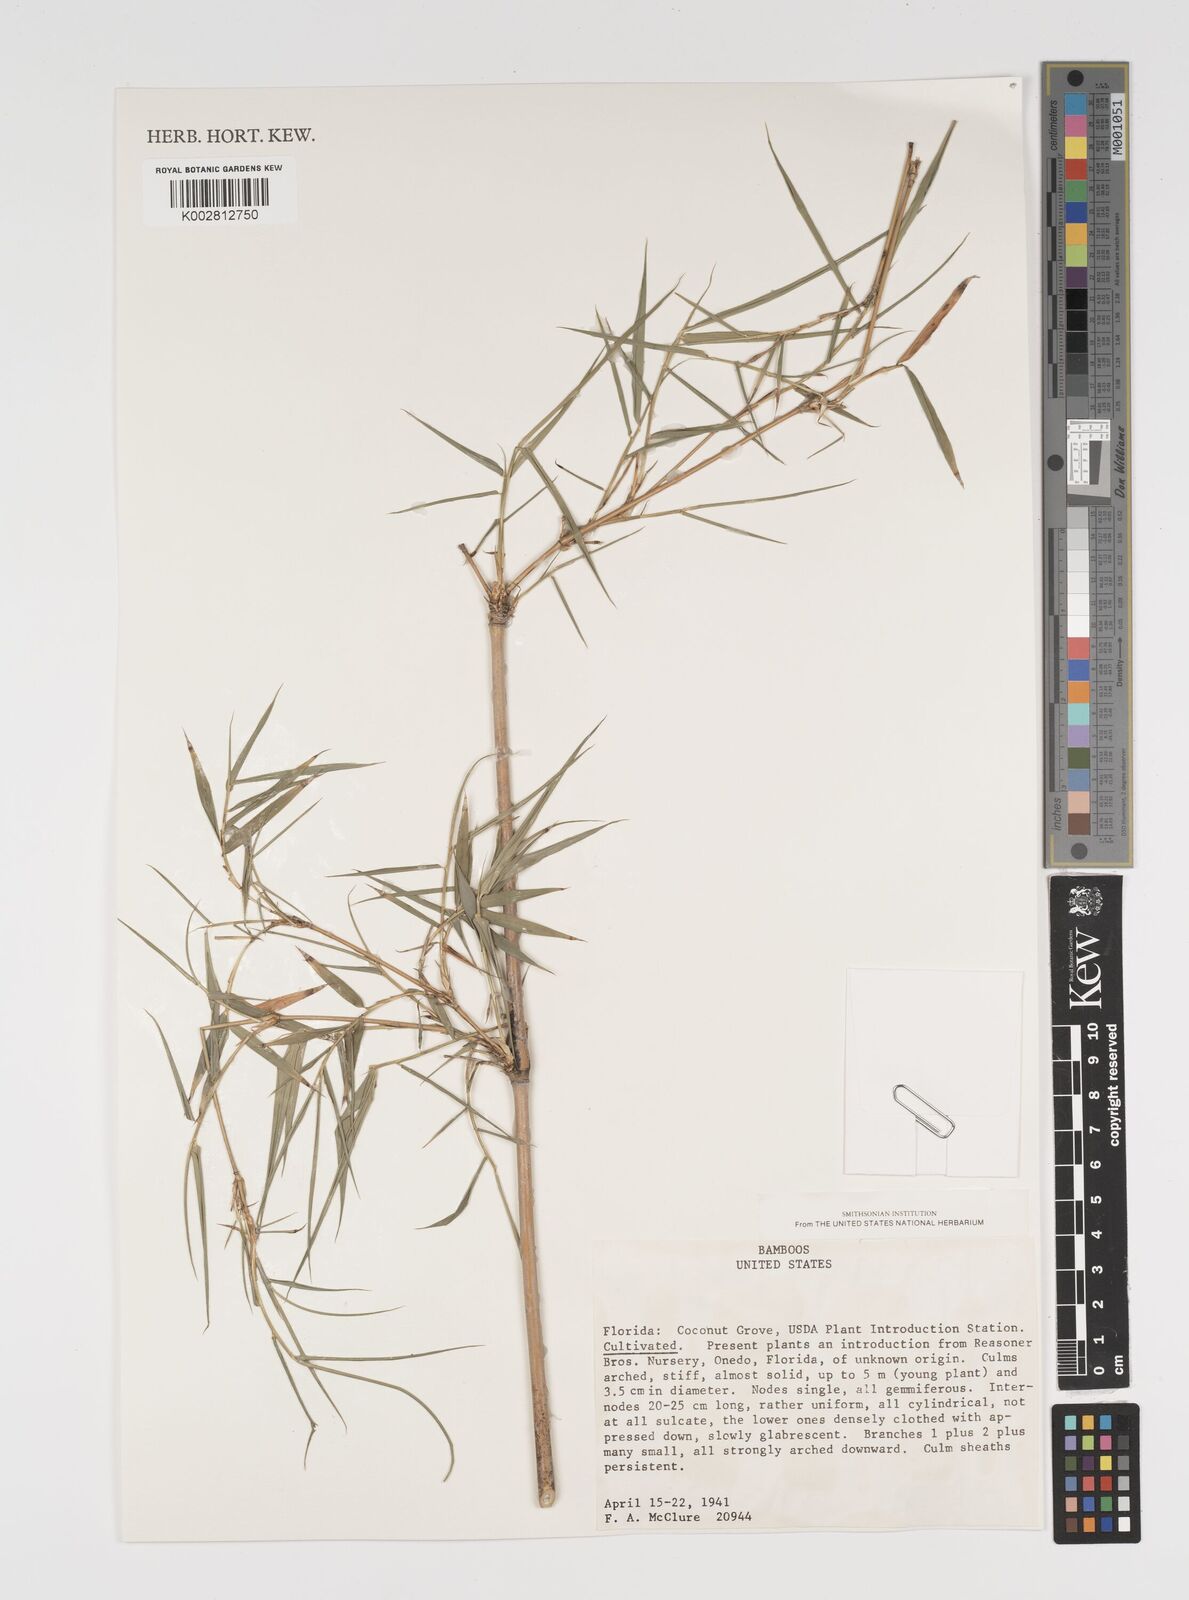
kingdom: Plantae
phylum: Tracheophyta
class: Liliopsida
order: Poales
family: Poaceae
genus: Arundinaria
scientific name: Arundinaria
